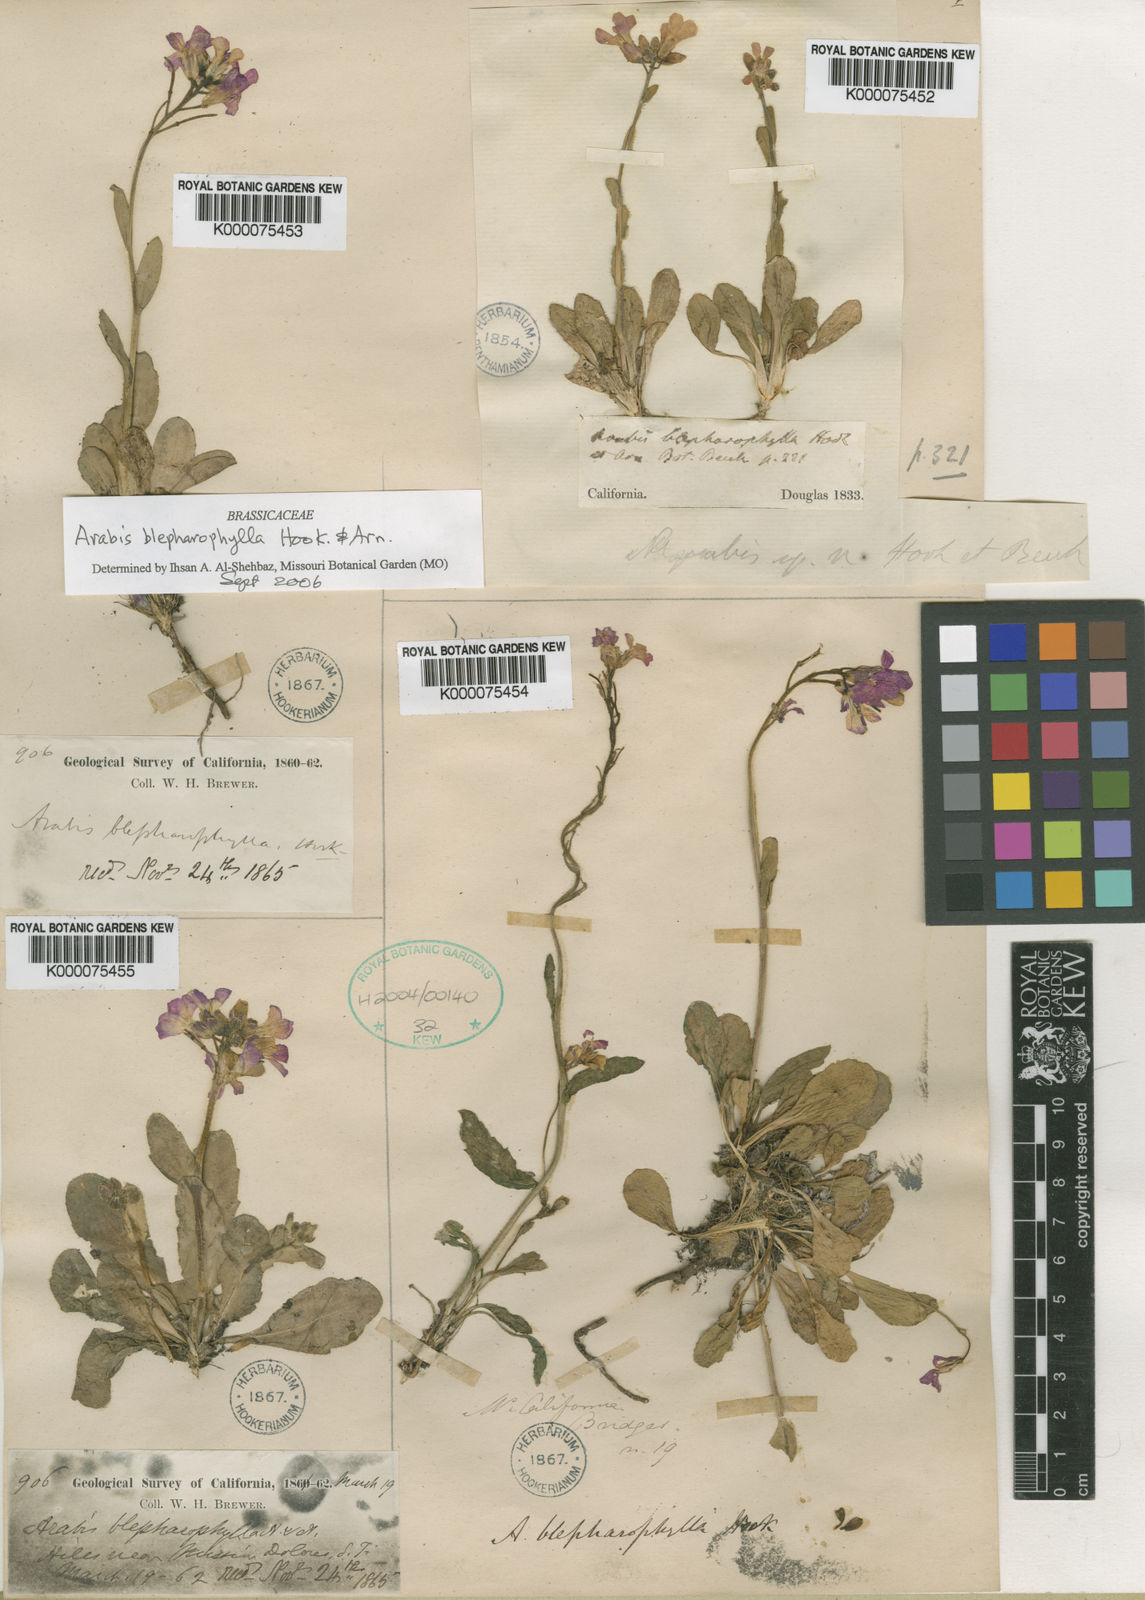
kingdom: Plantae
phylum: Tracheophyta
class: Magnoliopsida
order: Brassicales
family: Brassicaceae
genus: Arabis
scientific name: Arabis blepharophylla
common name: Rose rockcress
